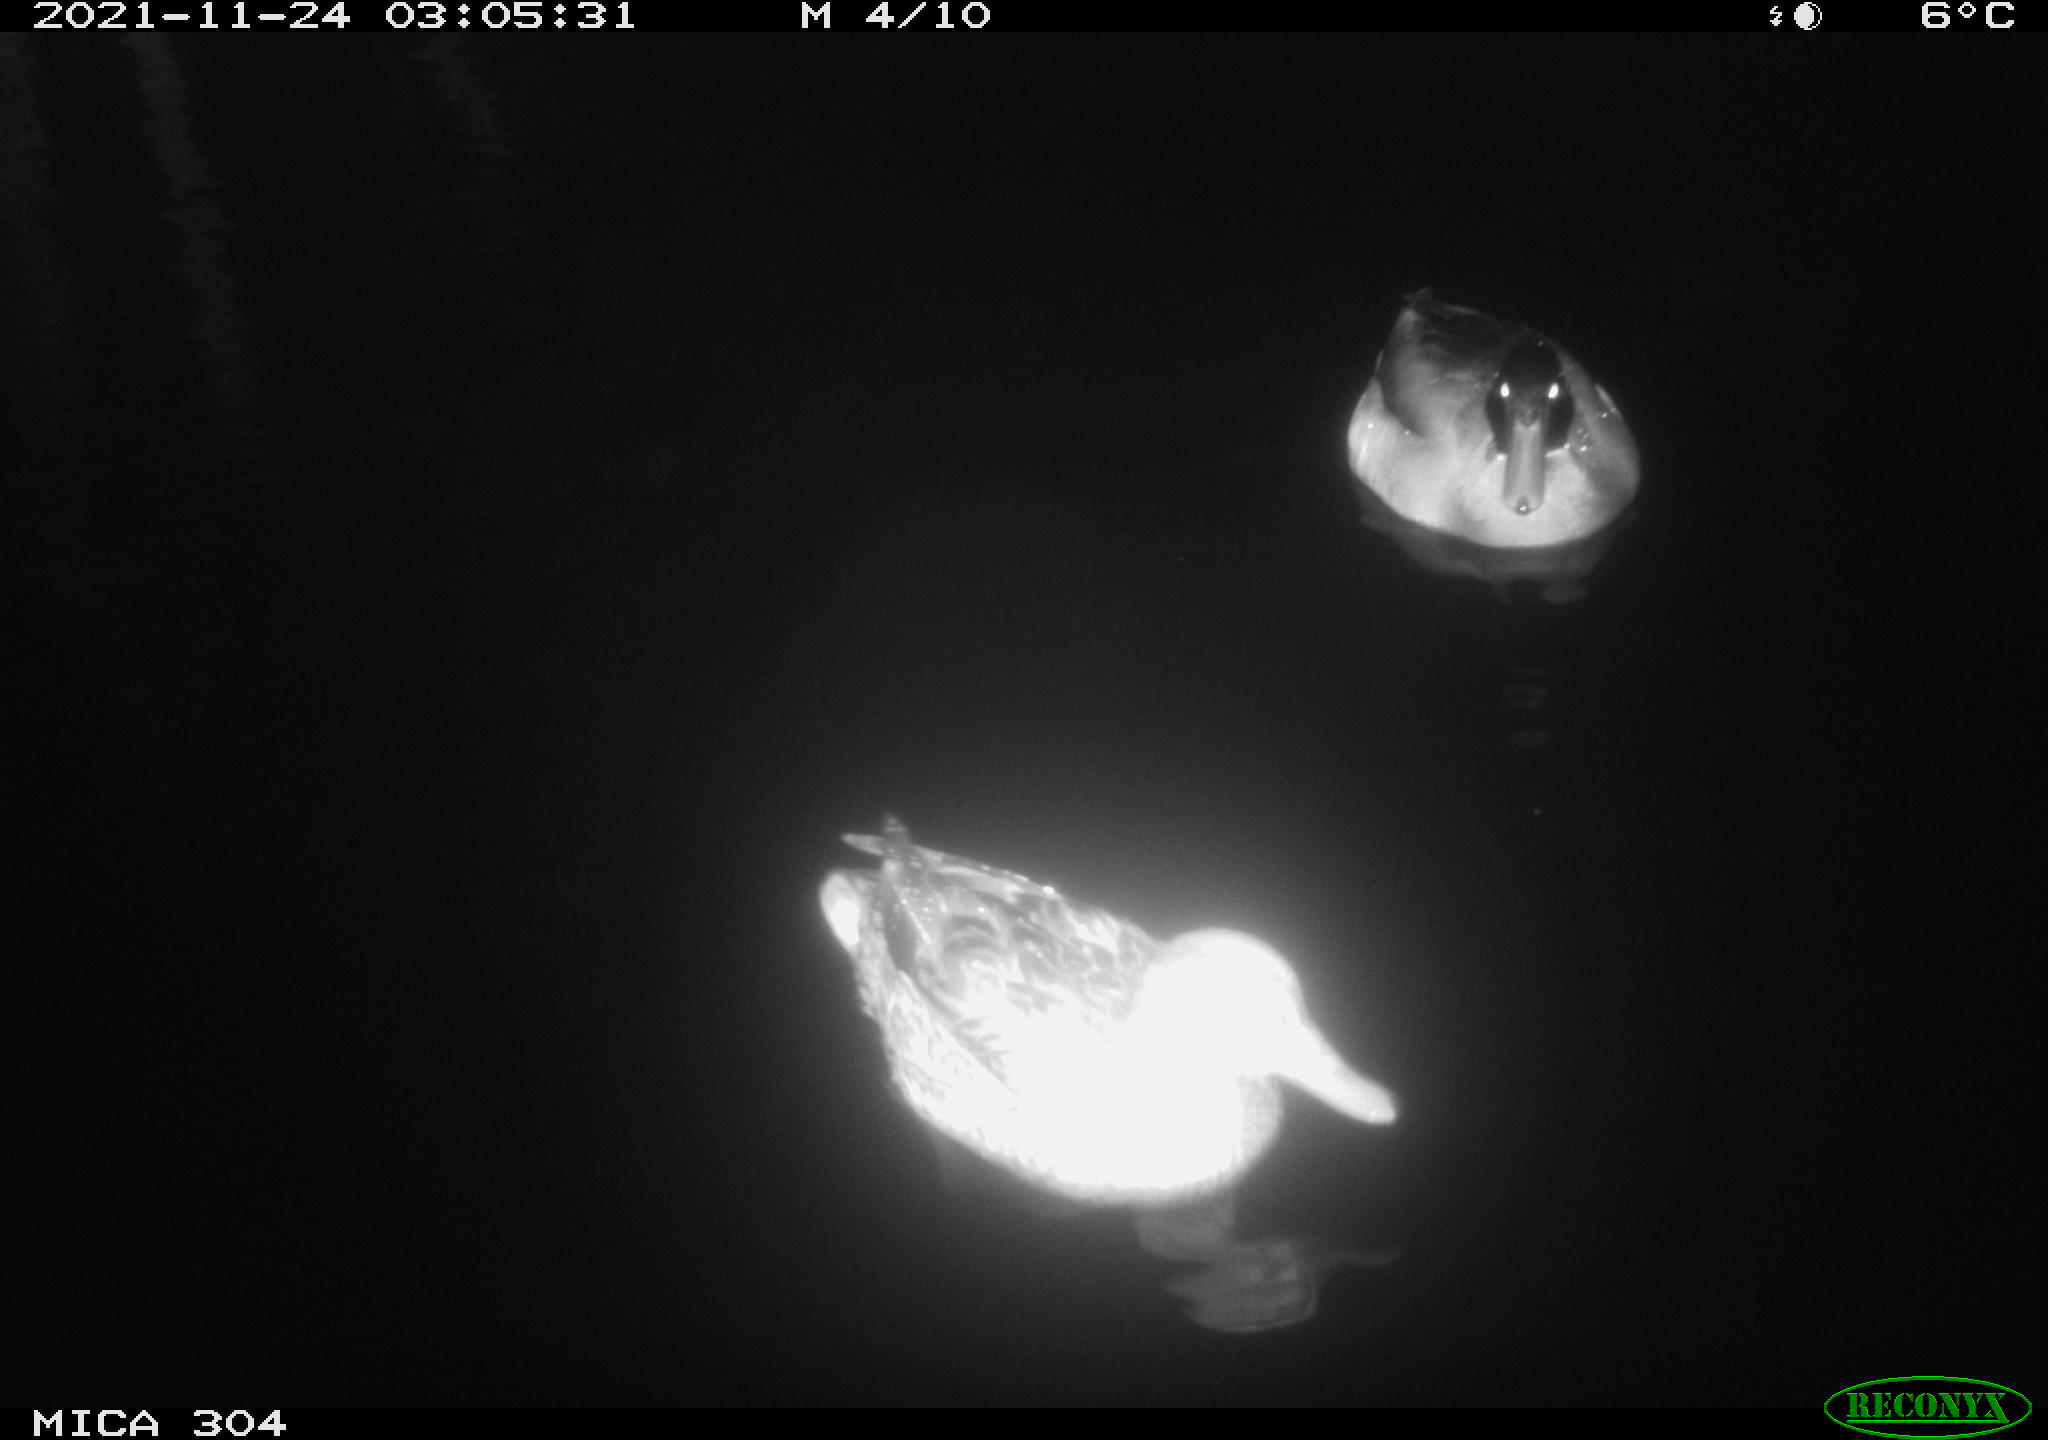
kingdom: Animalia
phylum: Chordata
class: Aves
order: Anseriformes
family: Anatidae
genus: Anas
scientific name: Anas platyrhynchos
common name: Mallard
